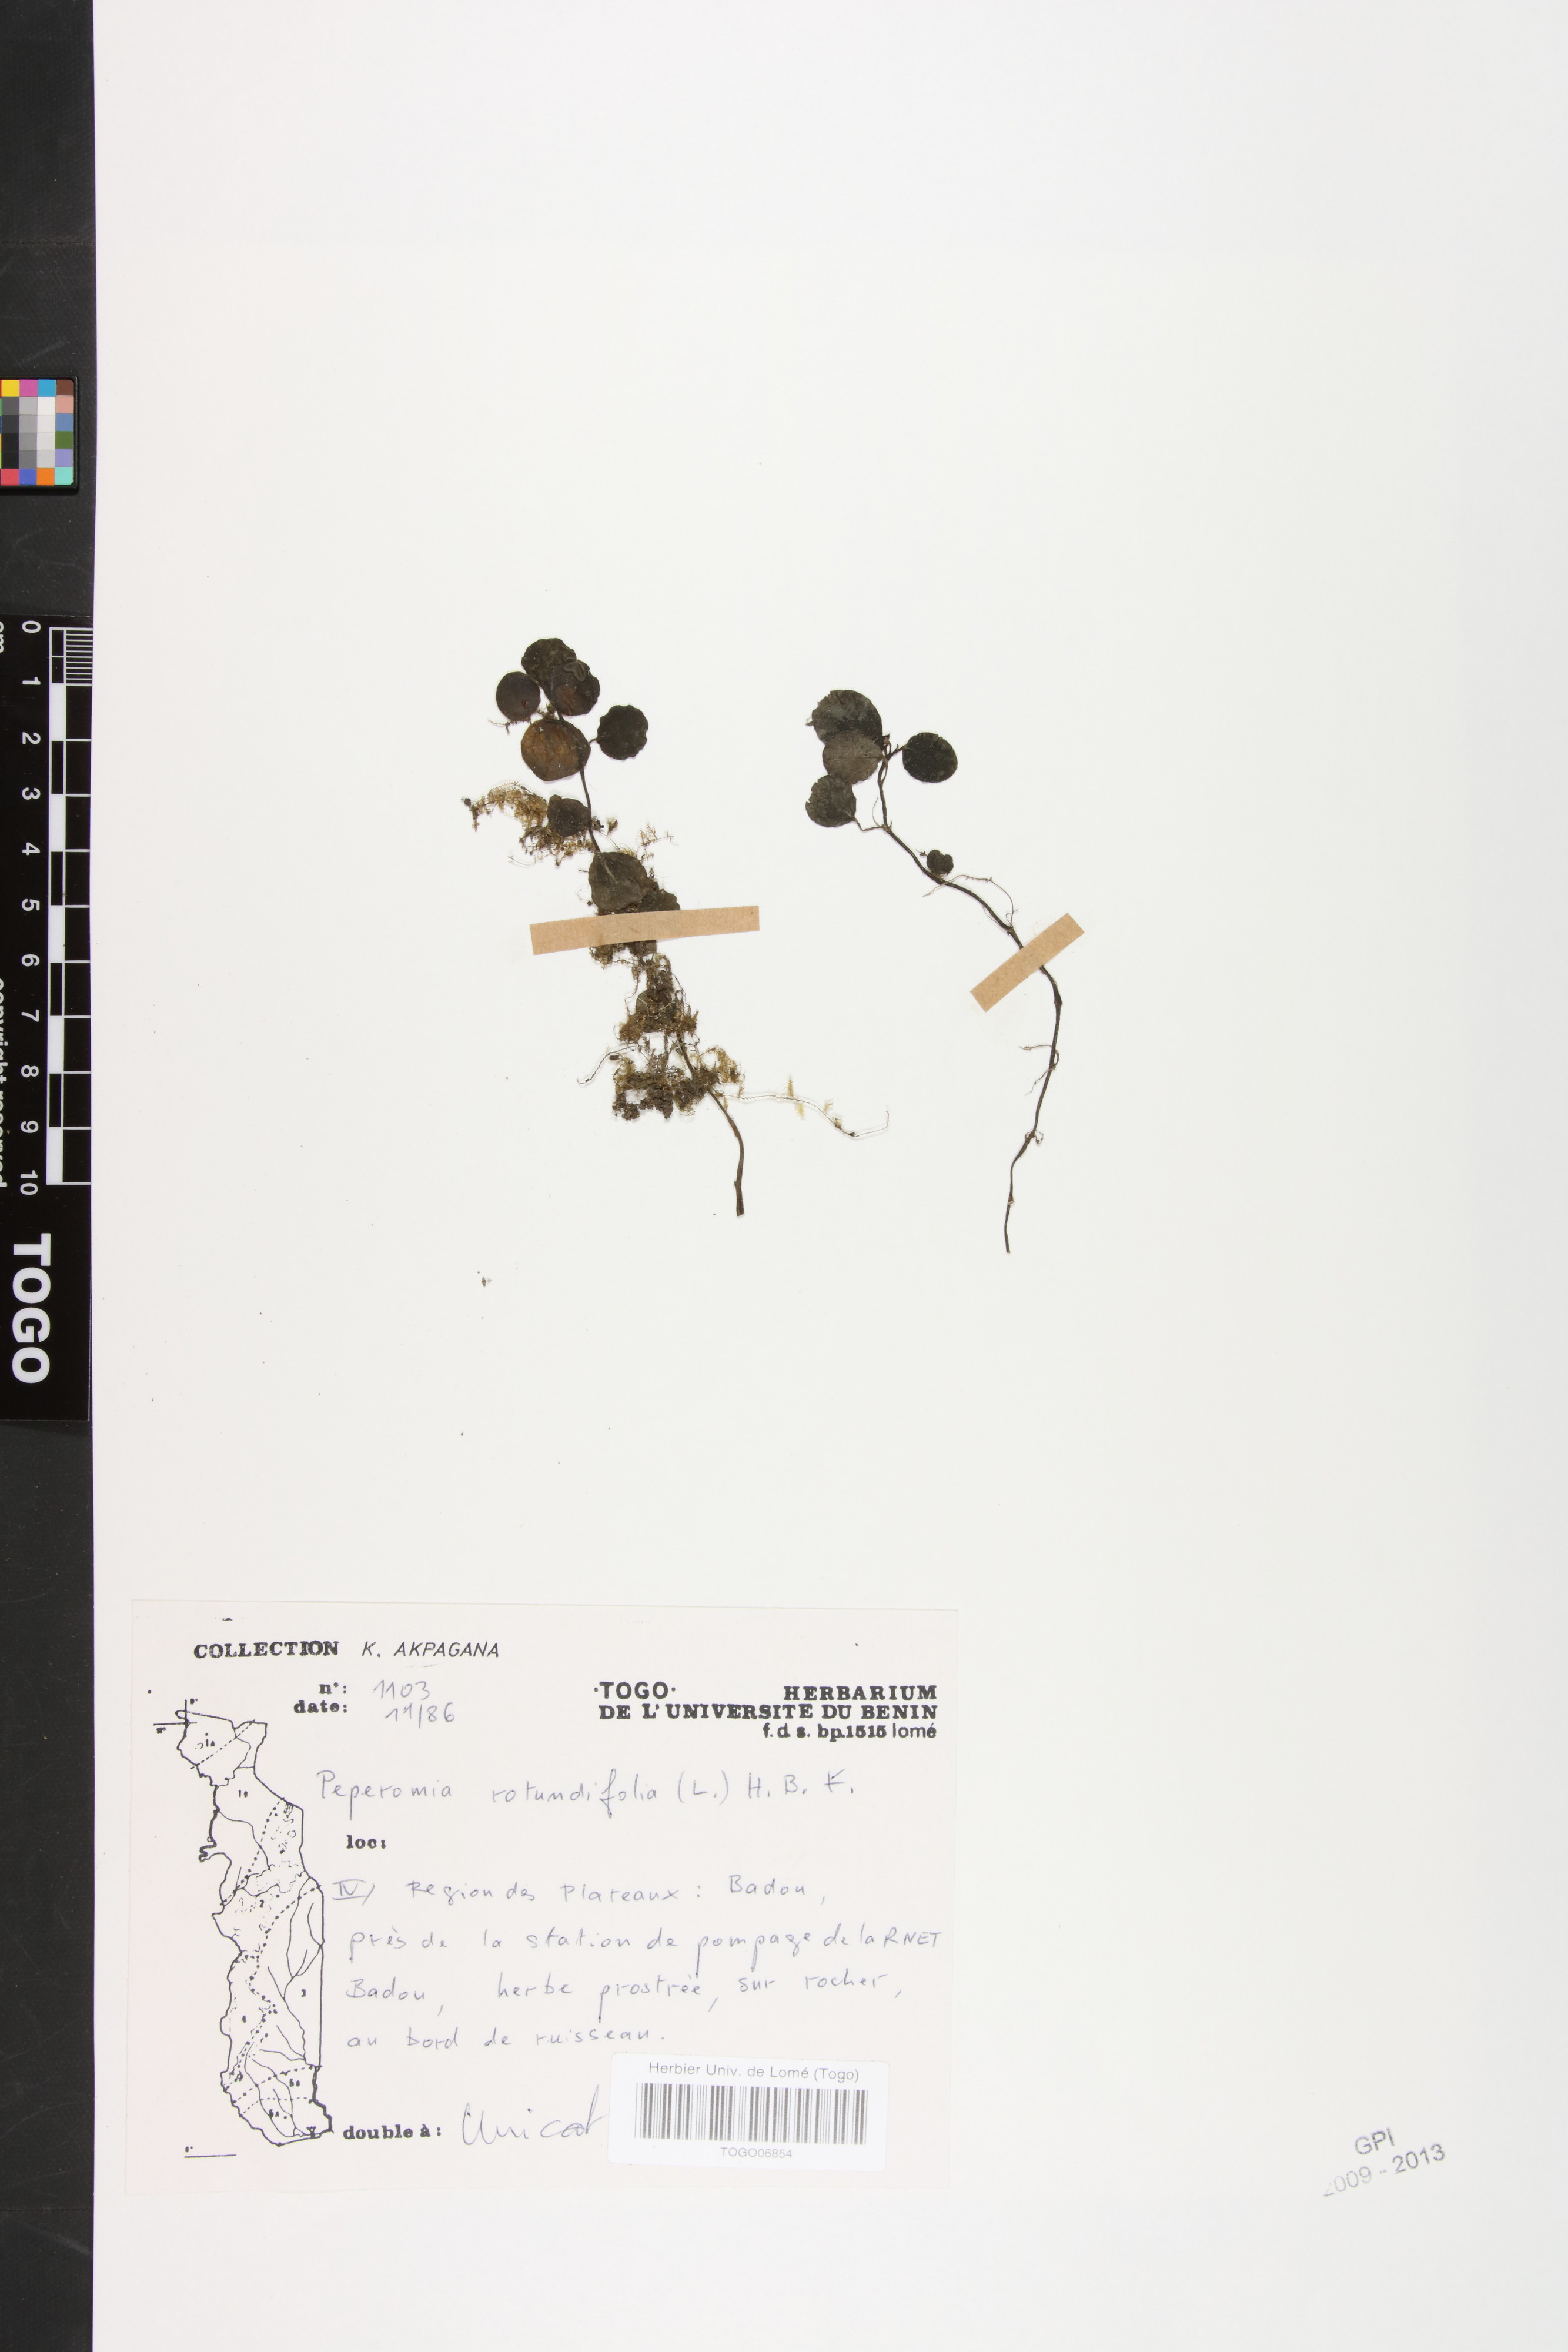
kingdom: Plantae
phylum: Tracheophyta
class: Magnoliopsida
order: Piperales
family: Piperaceae
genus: Peperomia
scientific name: Peperomia rotundifolia
